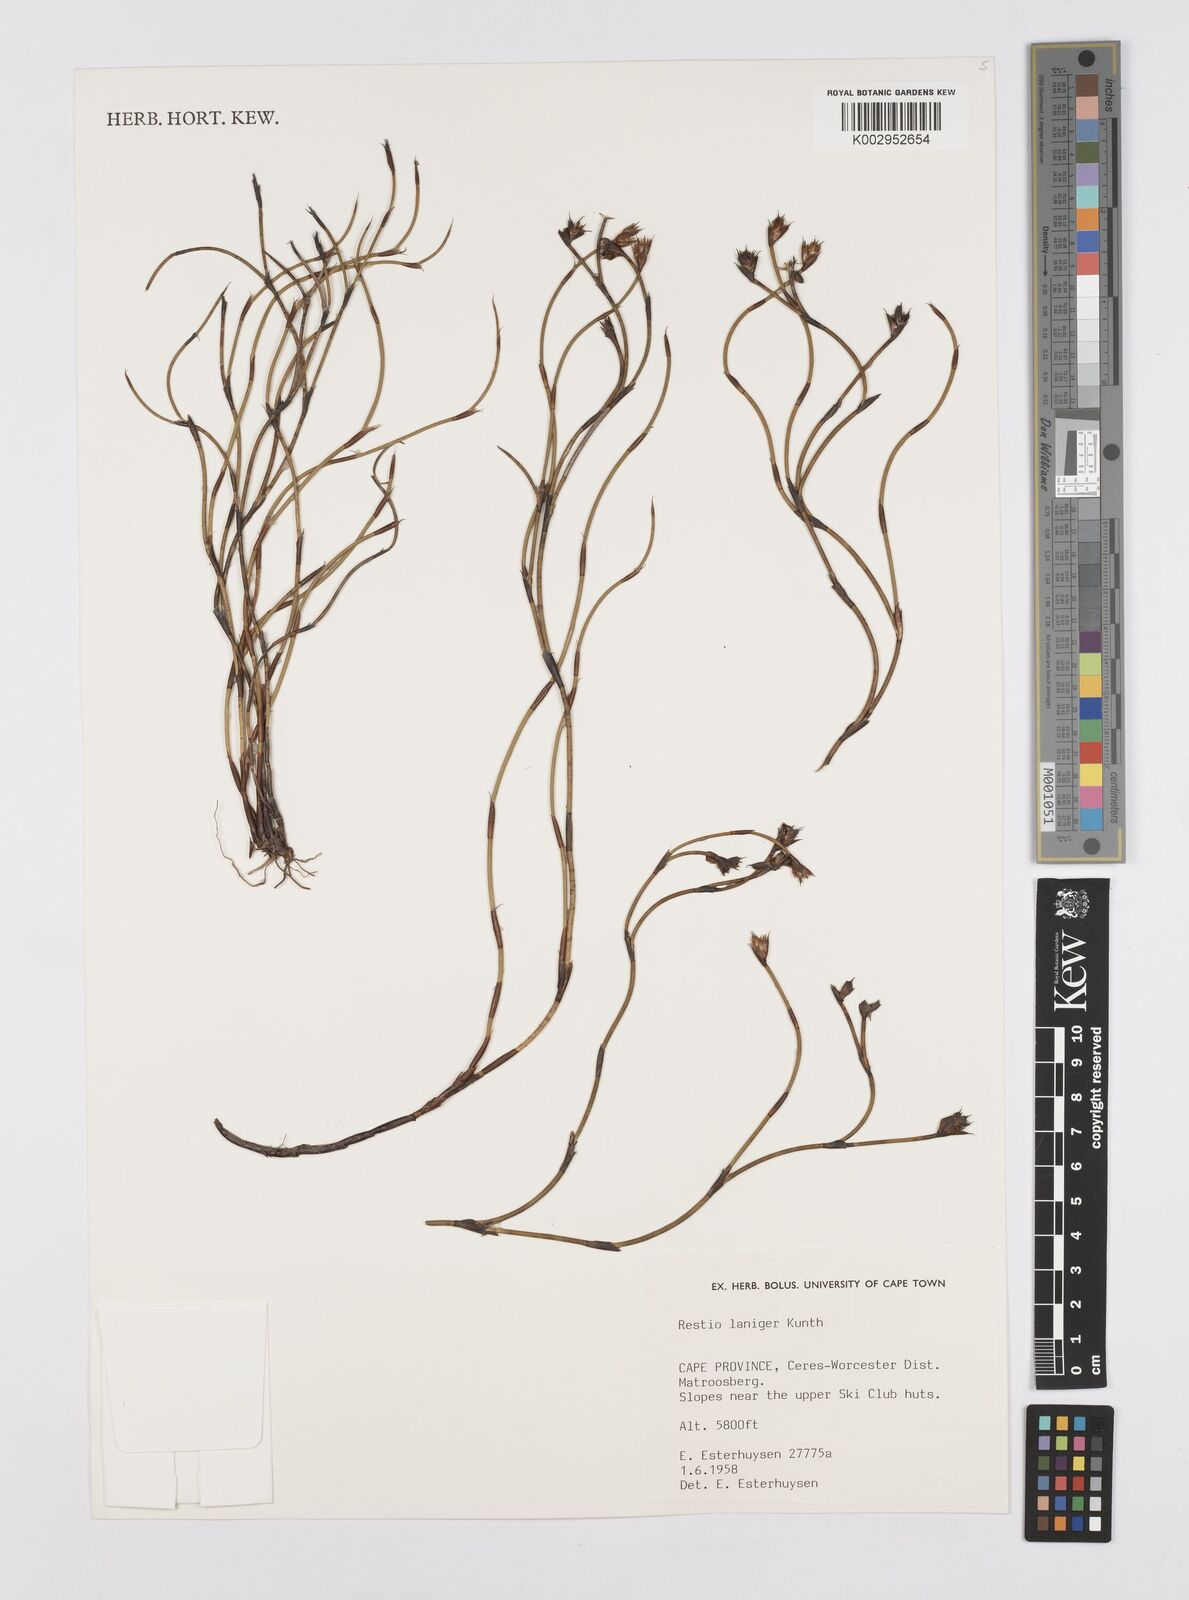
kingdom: Plantae
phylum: Tracheophyta
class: Liliopsida
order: Poales
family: Restionaceae
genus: Restio
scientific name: Restio laniger
